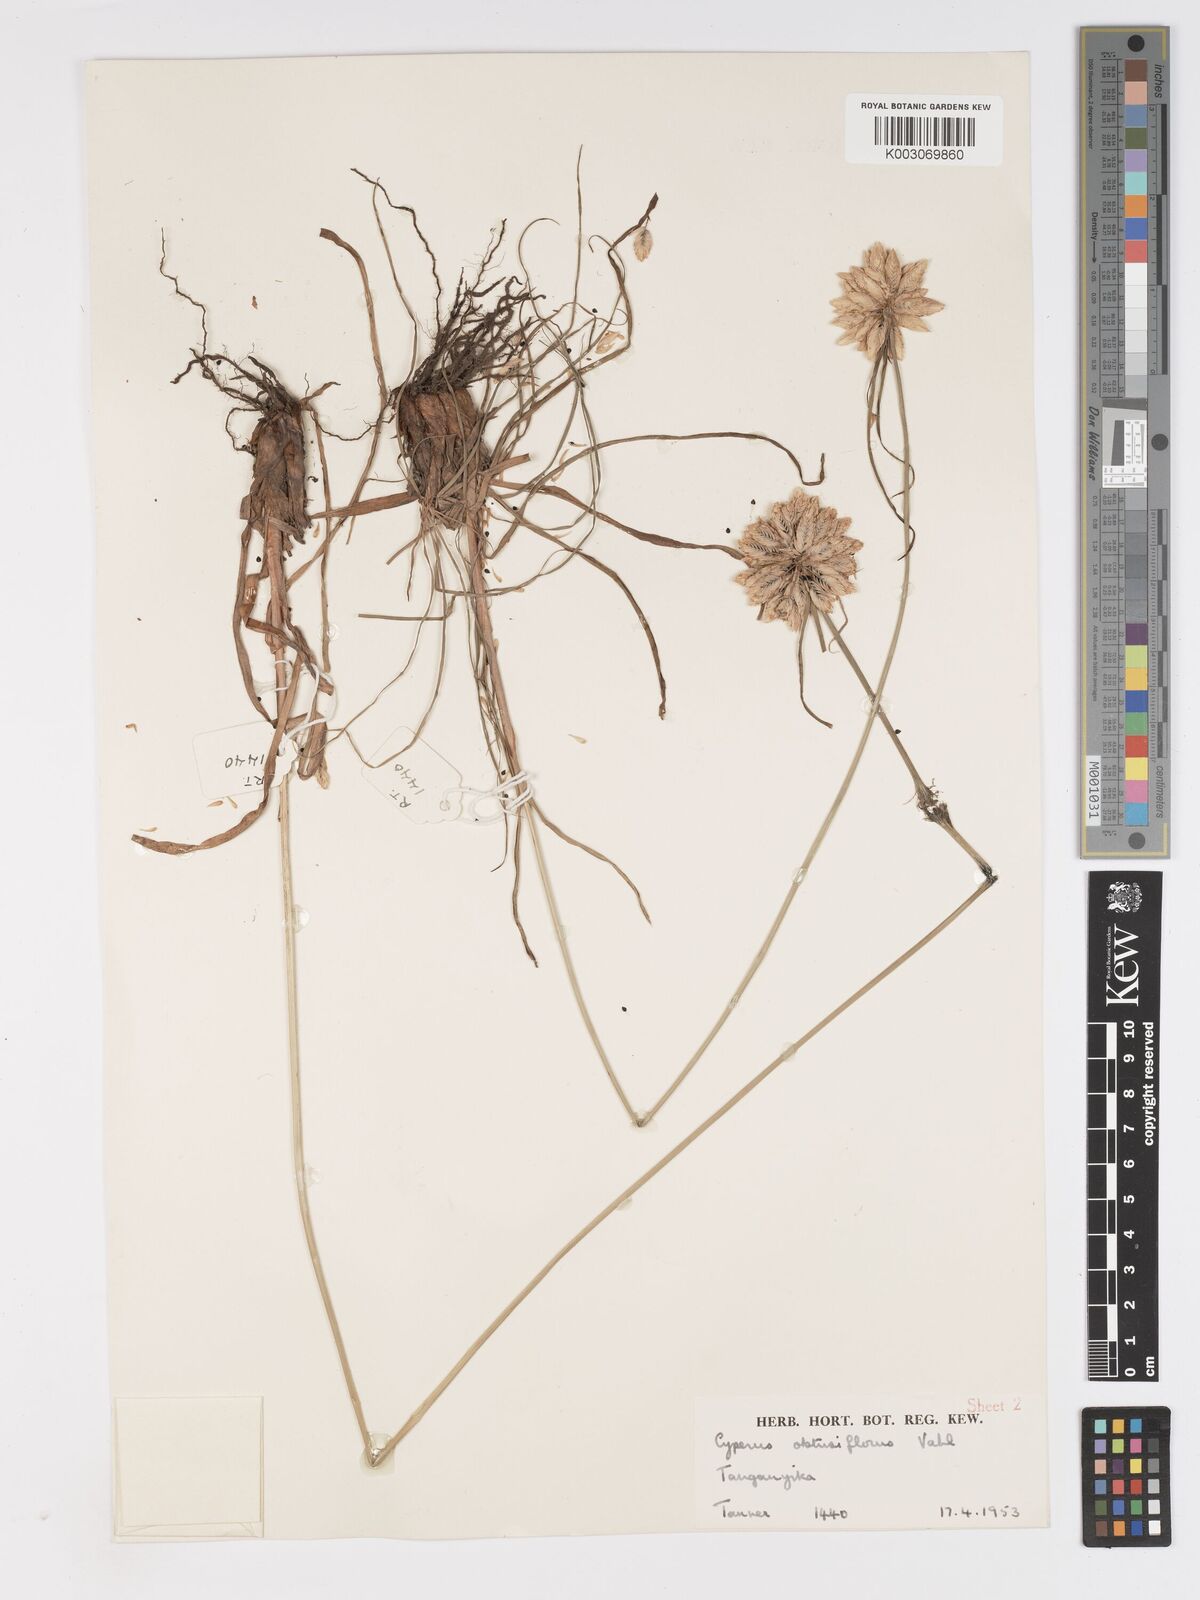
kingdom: Plantae
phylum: Tracheophyta
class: Liliopsida
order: Poales
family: Cyperaceae
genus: Cyperus
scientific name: Cyperus niveus
